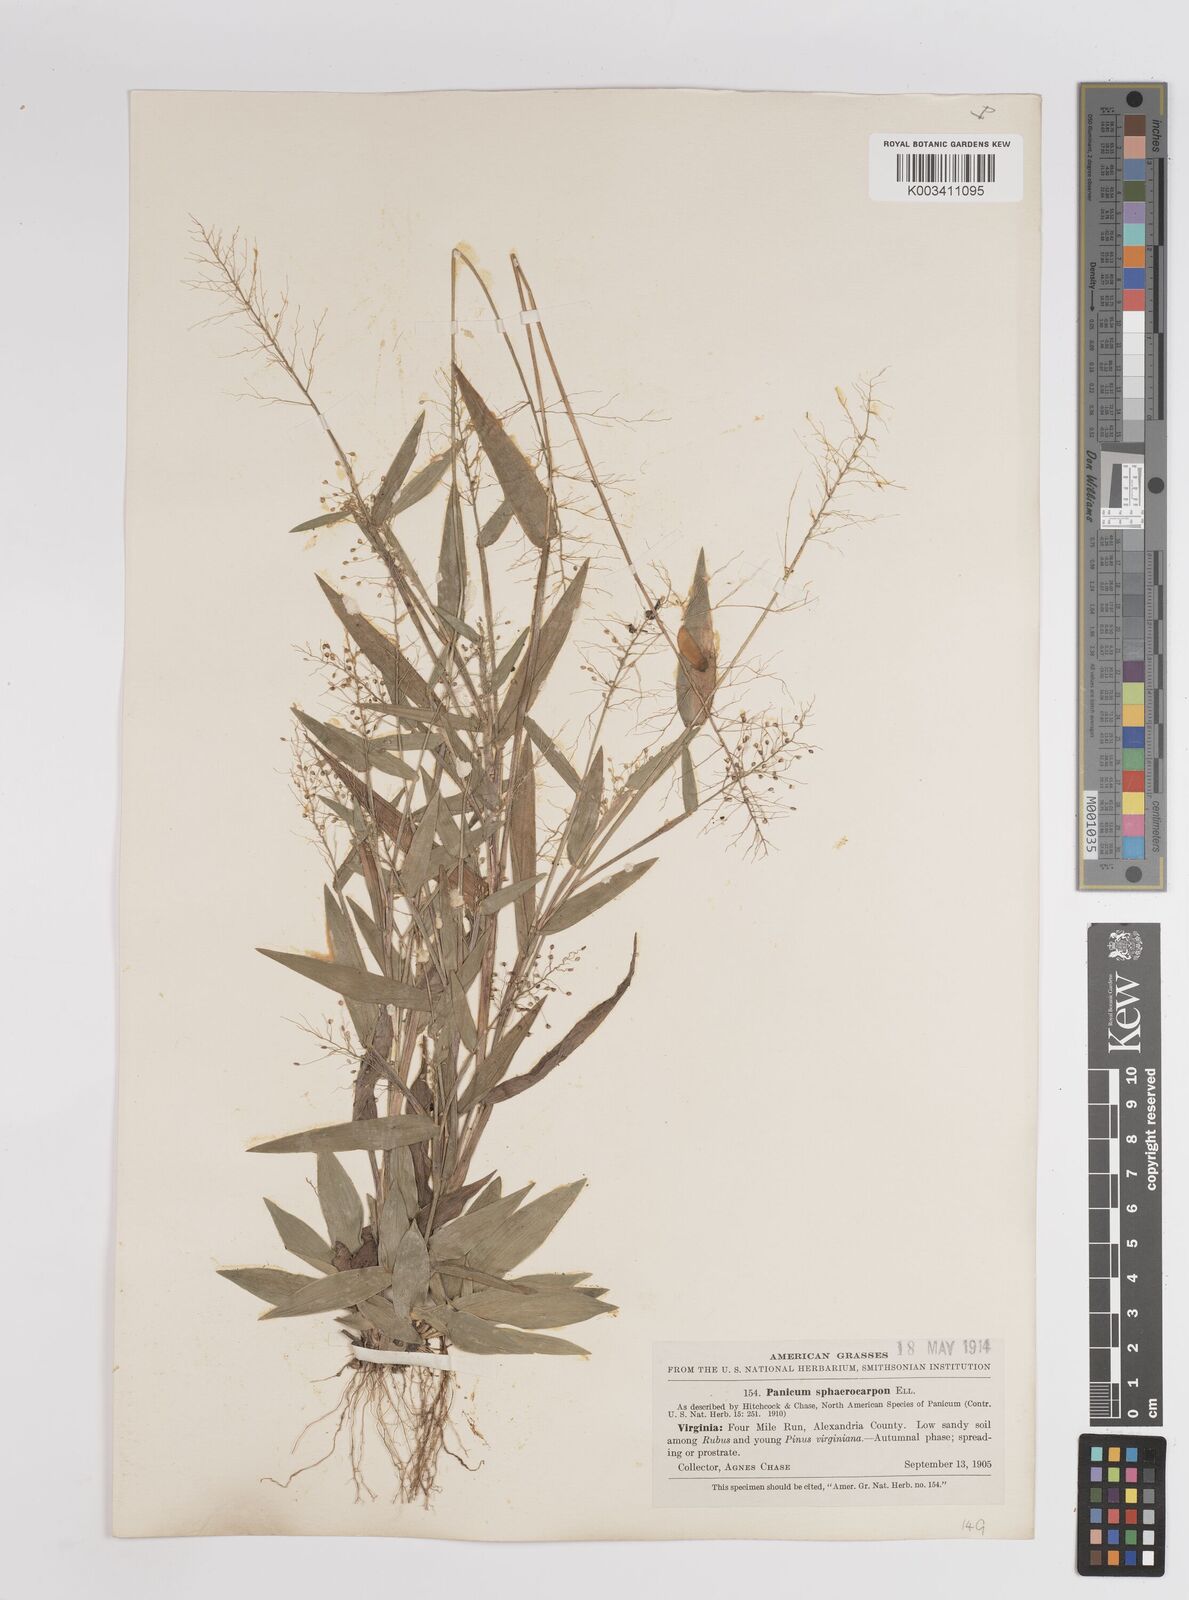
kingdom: Plantae
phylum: Tracheophyta
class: Liliopsida
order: Poales
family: Poaceae
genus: Dichanthelium
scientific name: Dichanthelium sphaerocarpon
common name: Round-fruited panicgrass
